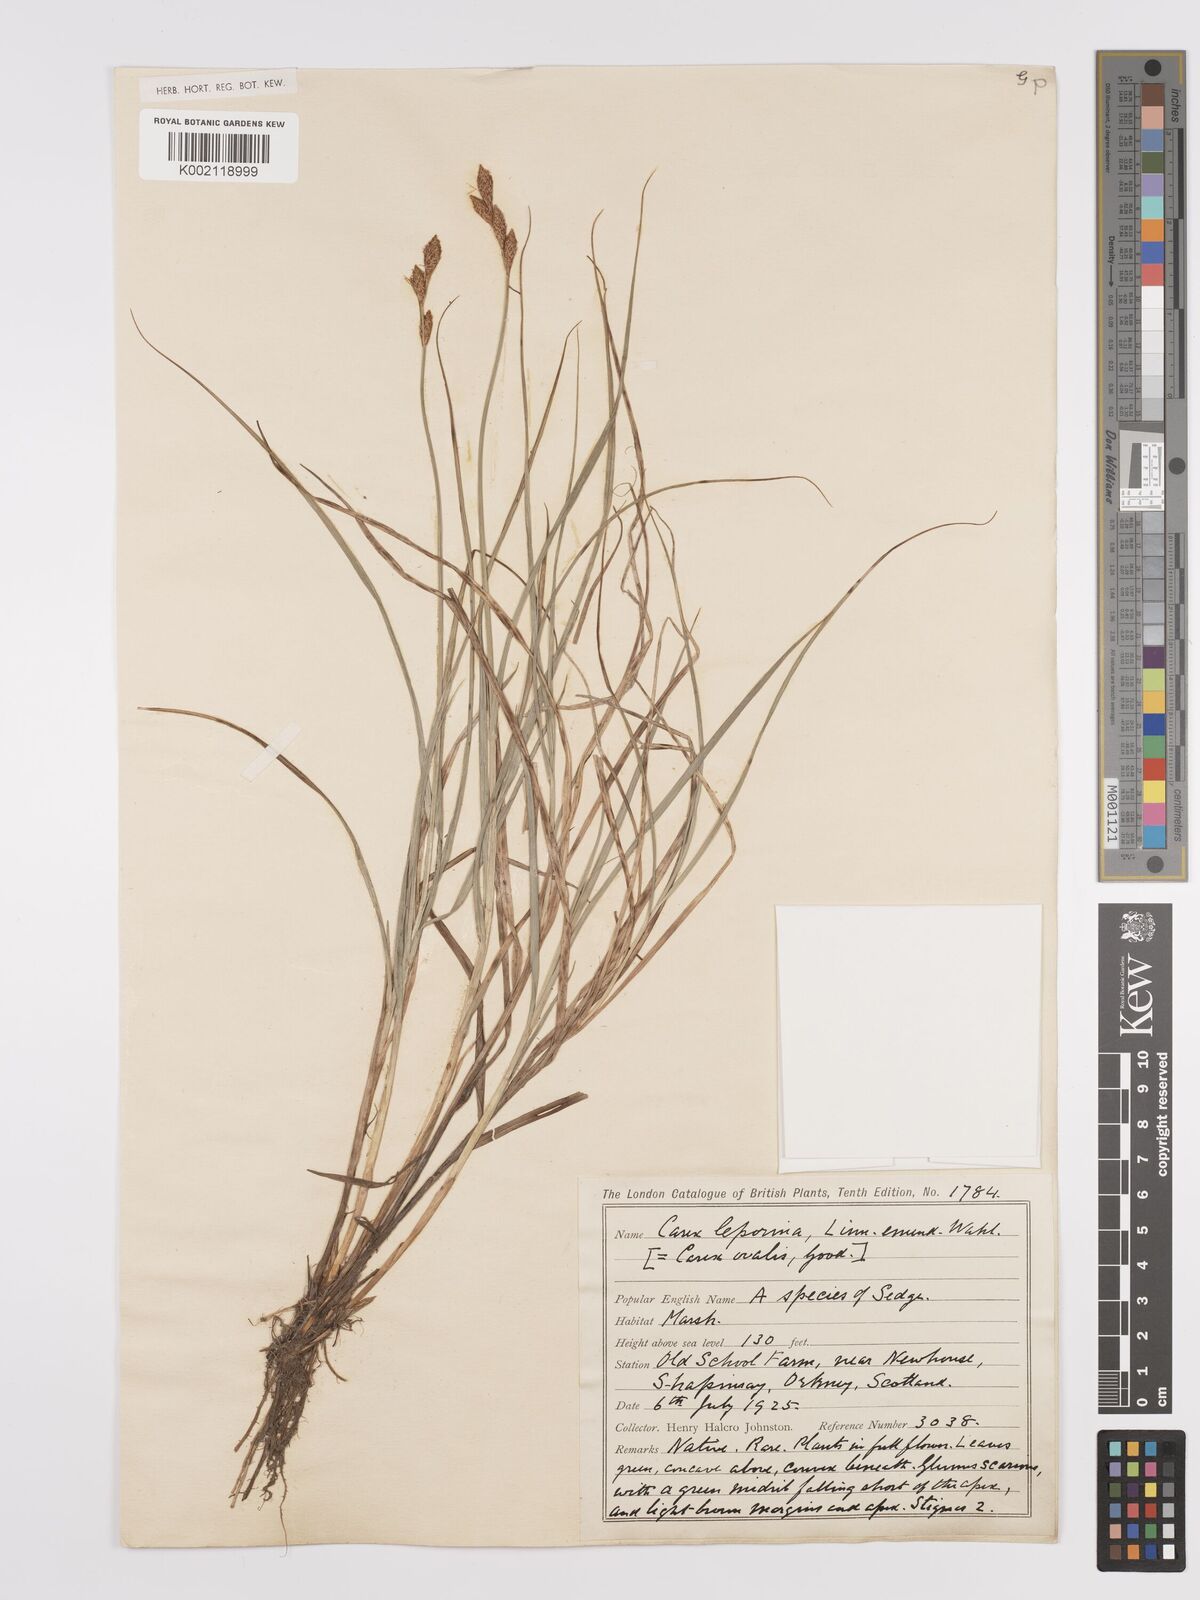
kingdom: Plantae
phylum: Tracheophyta
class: Liliopsida
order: Poales
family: Cyperaceae
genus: Carex
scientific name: Carex leporina
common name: Oval sedge
